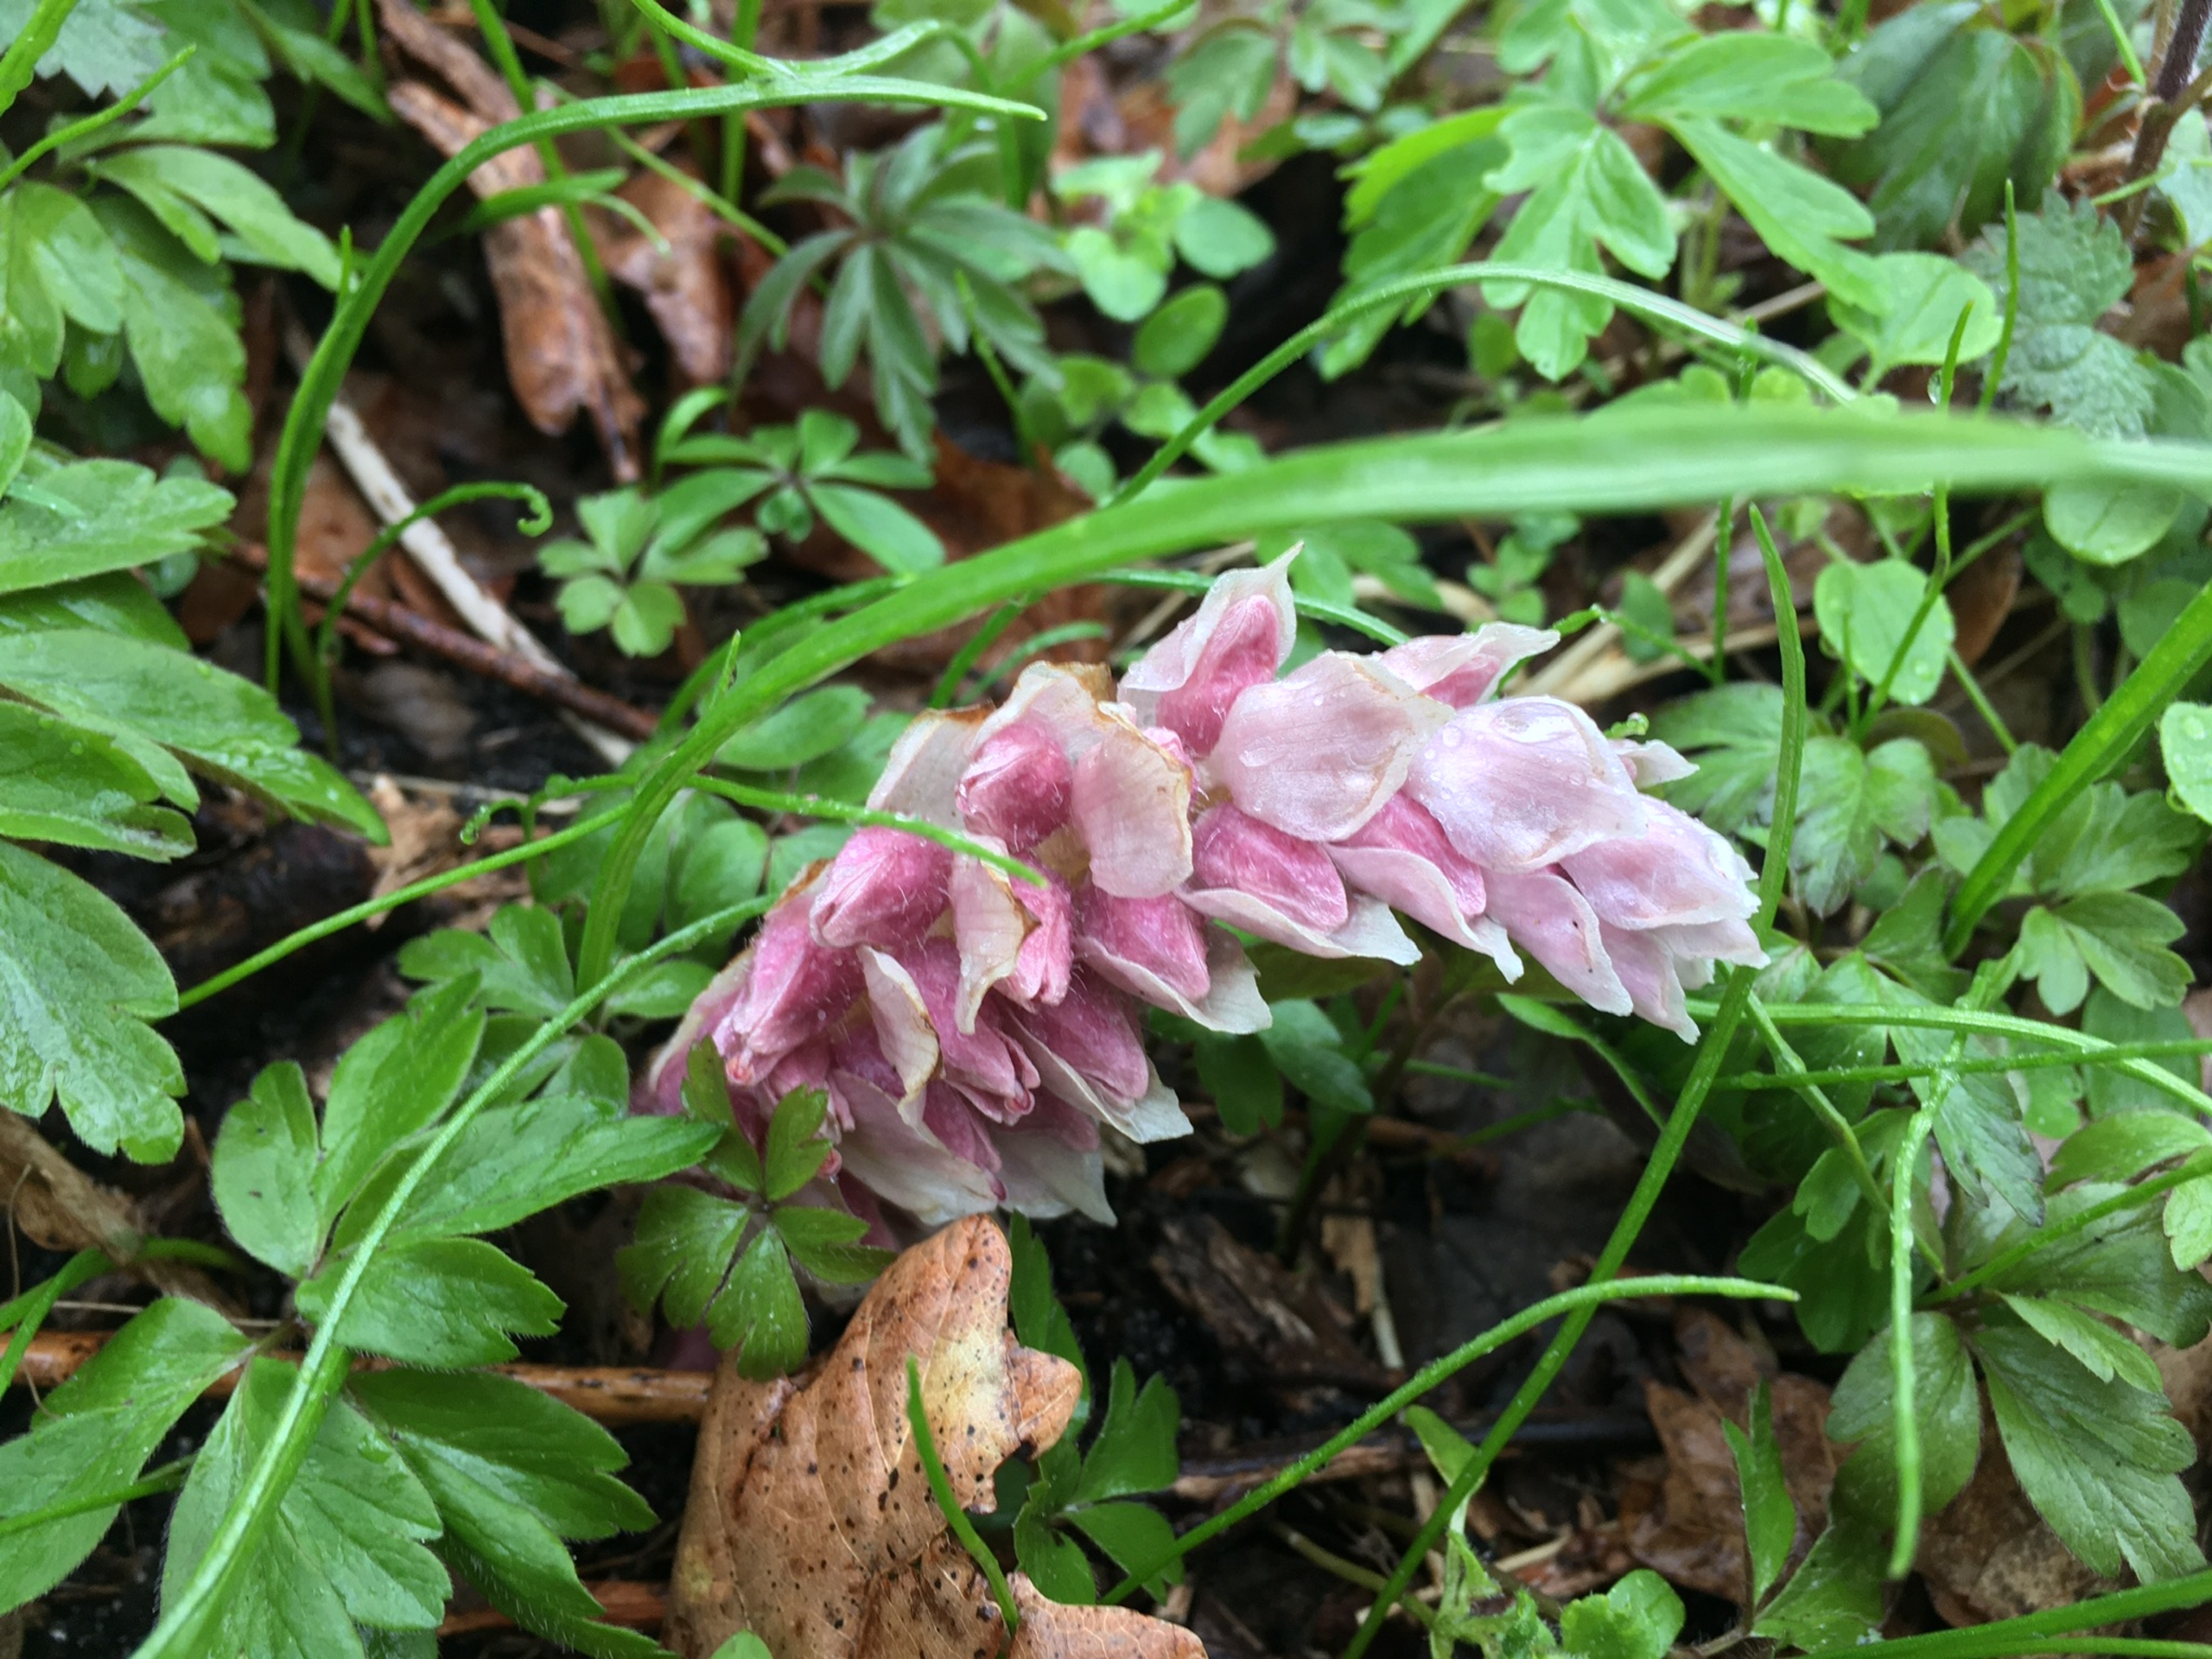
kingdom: Plantae
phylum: Tracheophyta
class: Magnoliopsida
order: Lamiales
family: Orobanchaceae
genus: Lathraea
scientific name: Lathraea squamaria
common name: Skælrod
